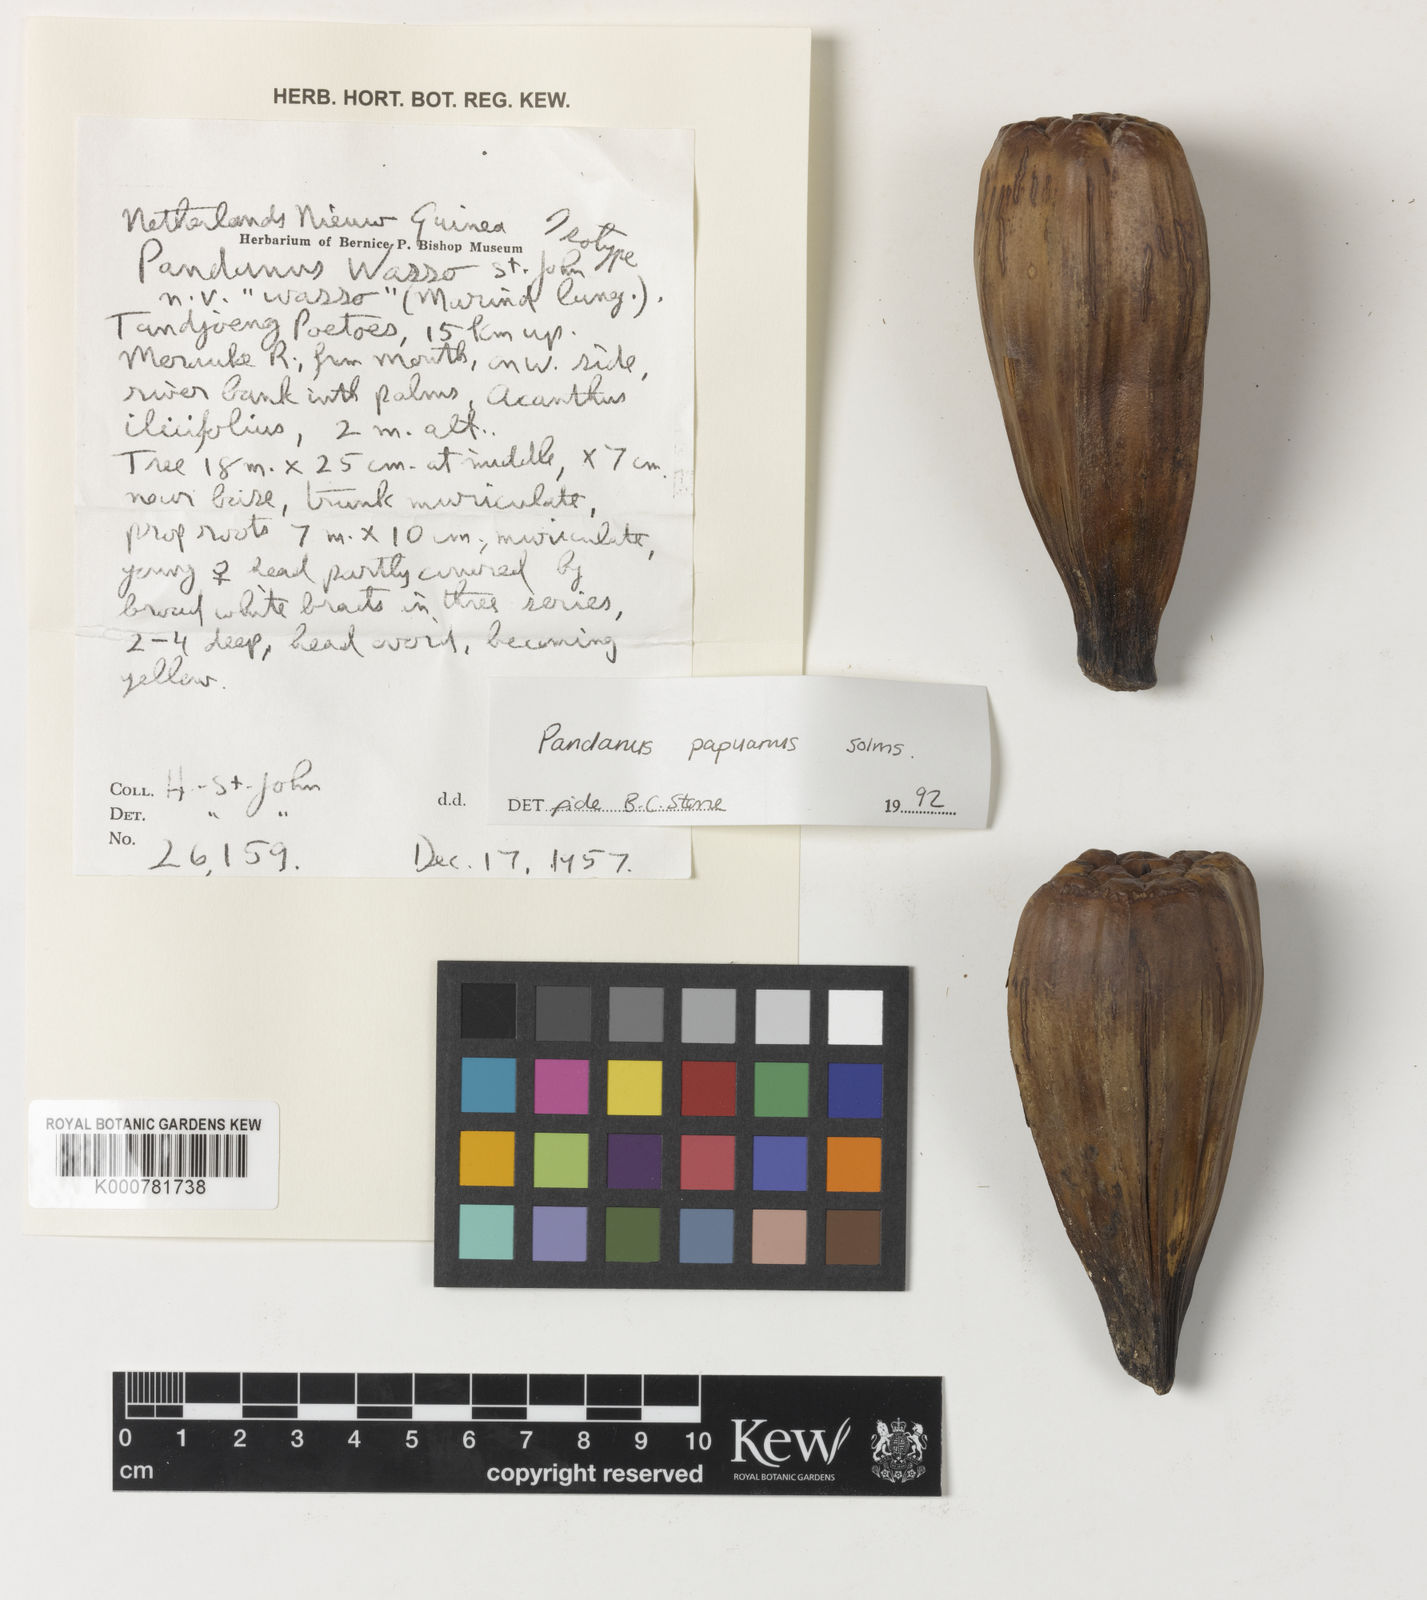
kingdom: Plantae
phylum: Tracheophyta
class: Liliopsida
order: Pandanales
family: Pandanaceae
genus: Pandanus
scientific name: Pandanus papuanus
